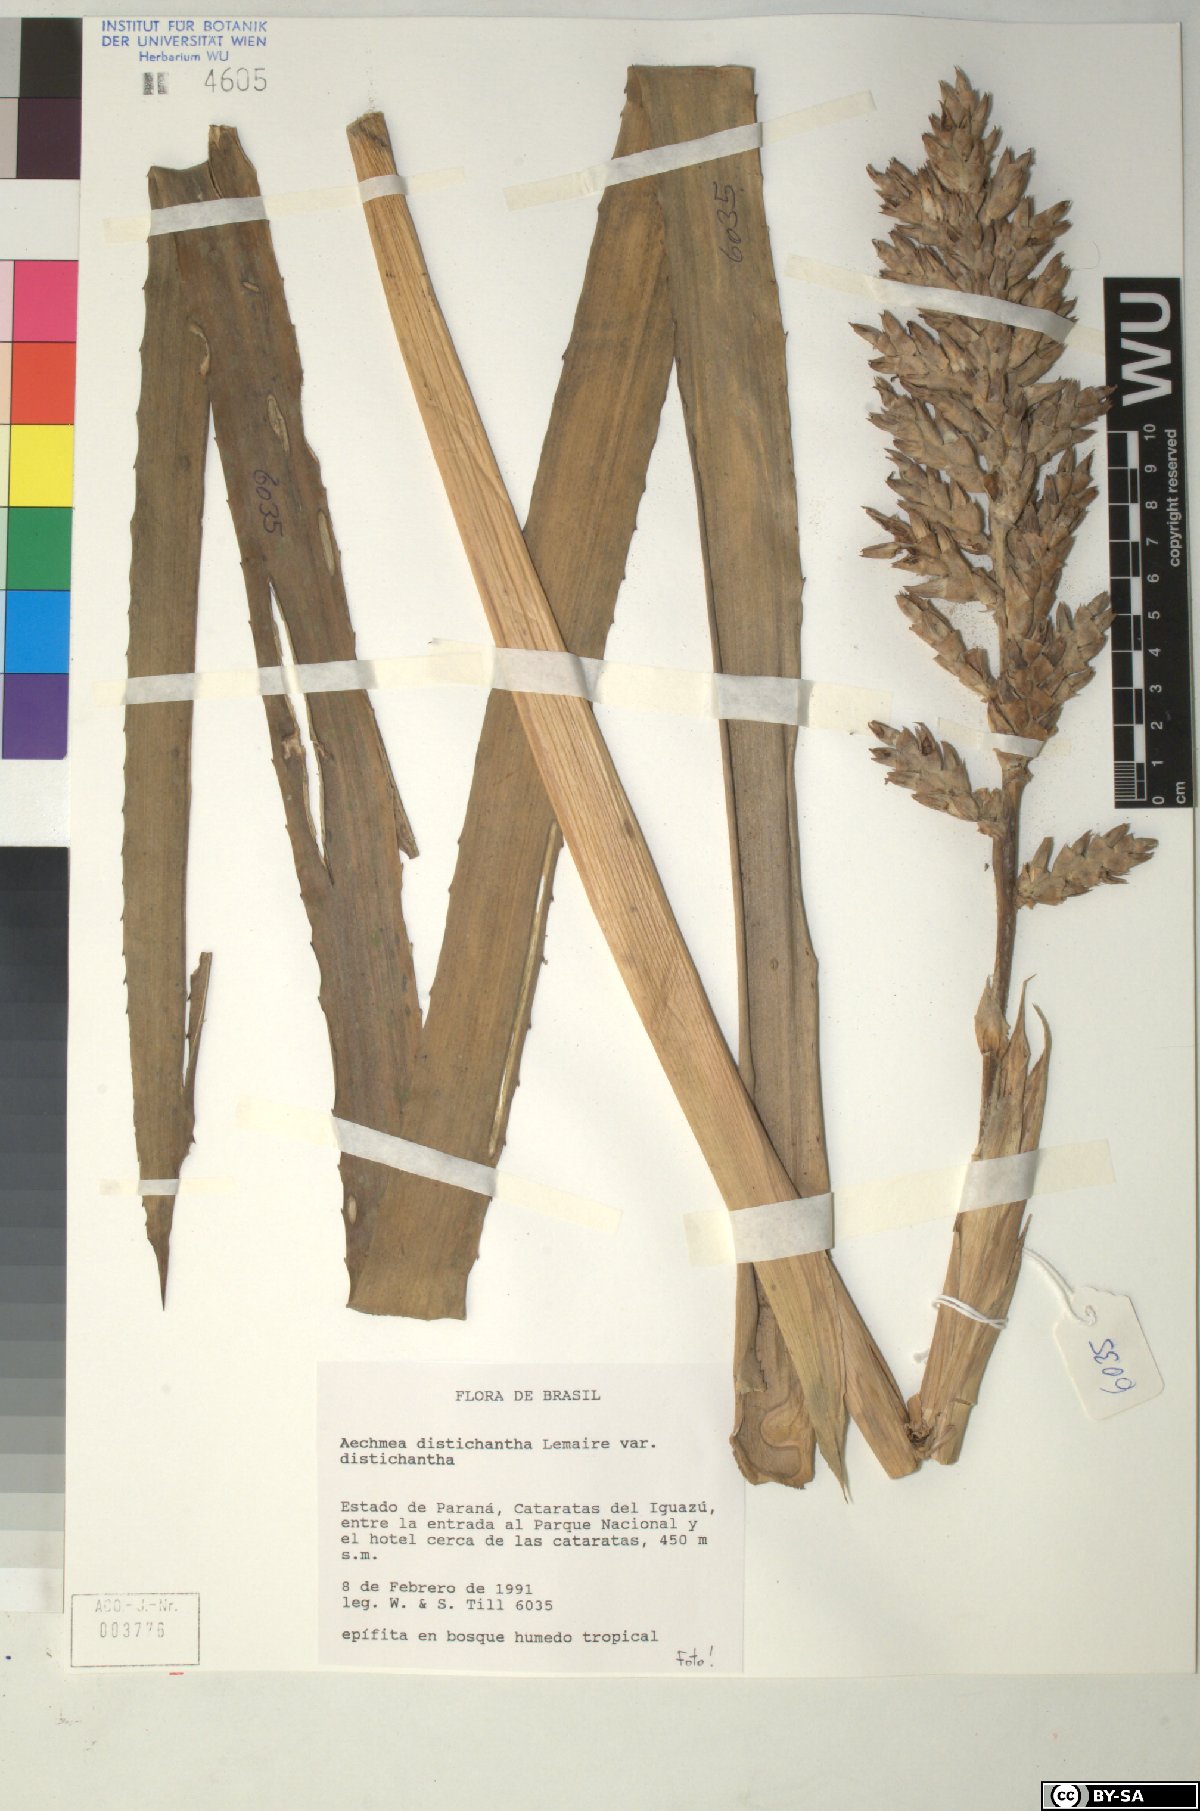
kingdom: Plantae
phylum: Tracheophyta
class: Liliopsida
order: Poales
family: Bromeliaceae
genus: Aechmea
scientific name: Aechmea distichantha
